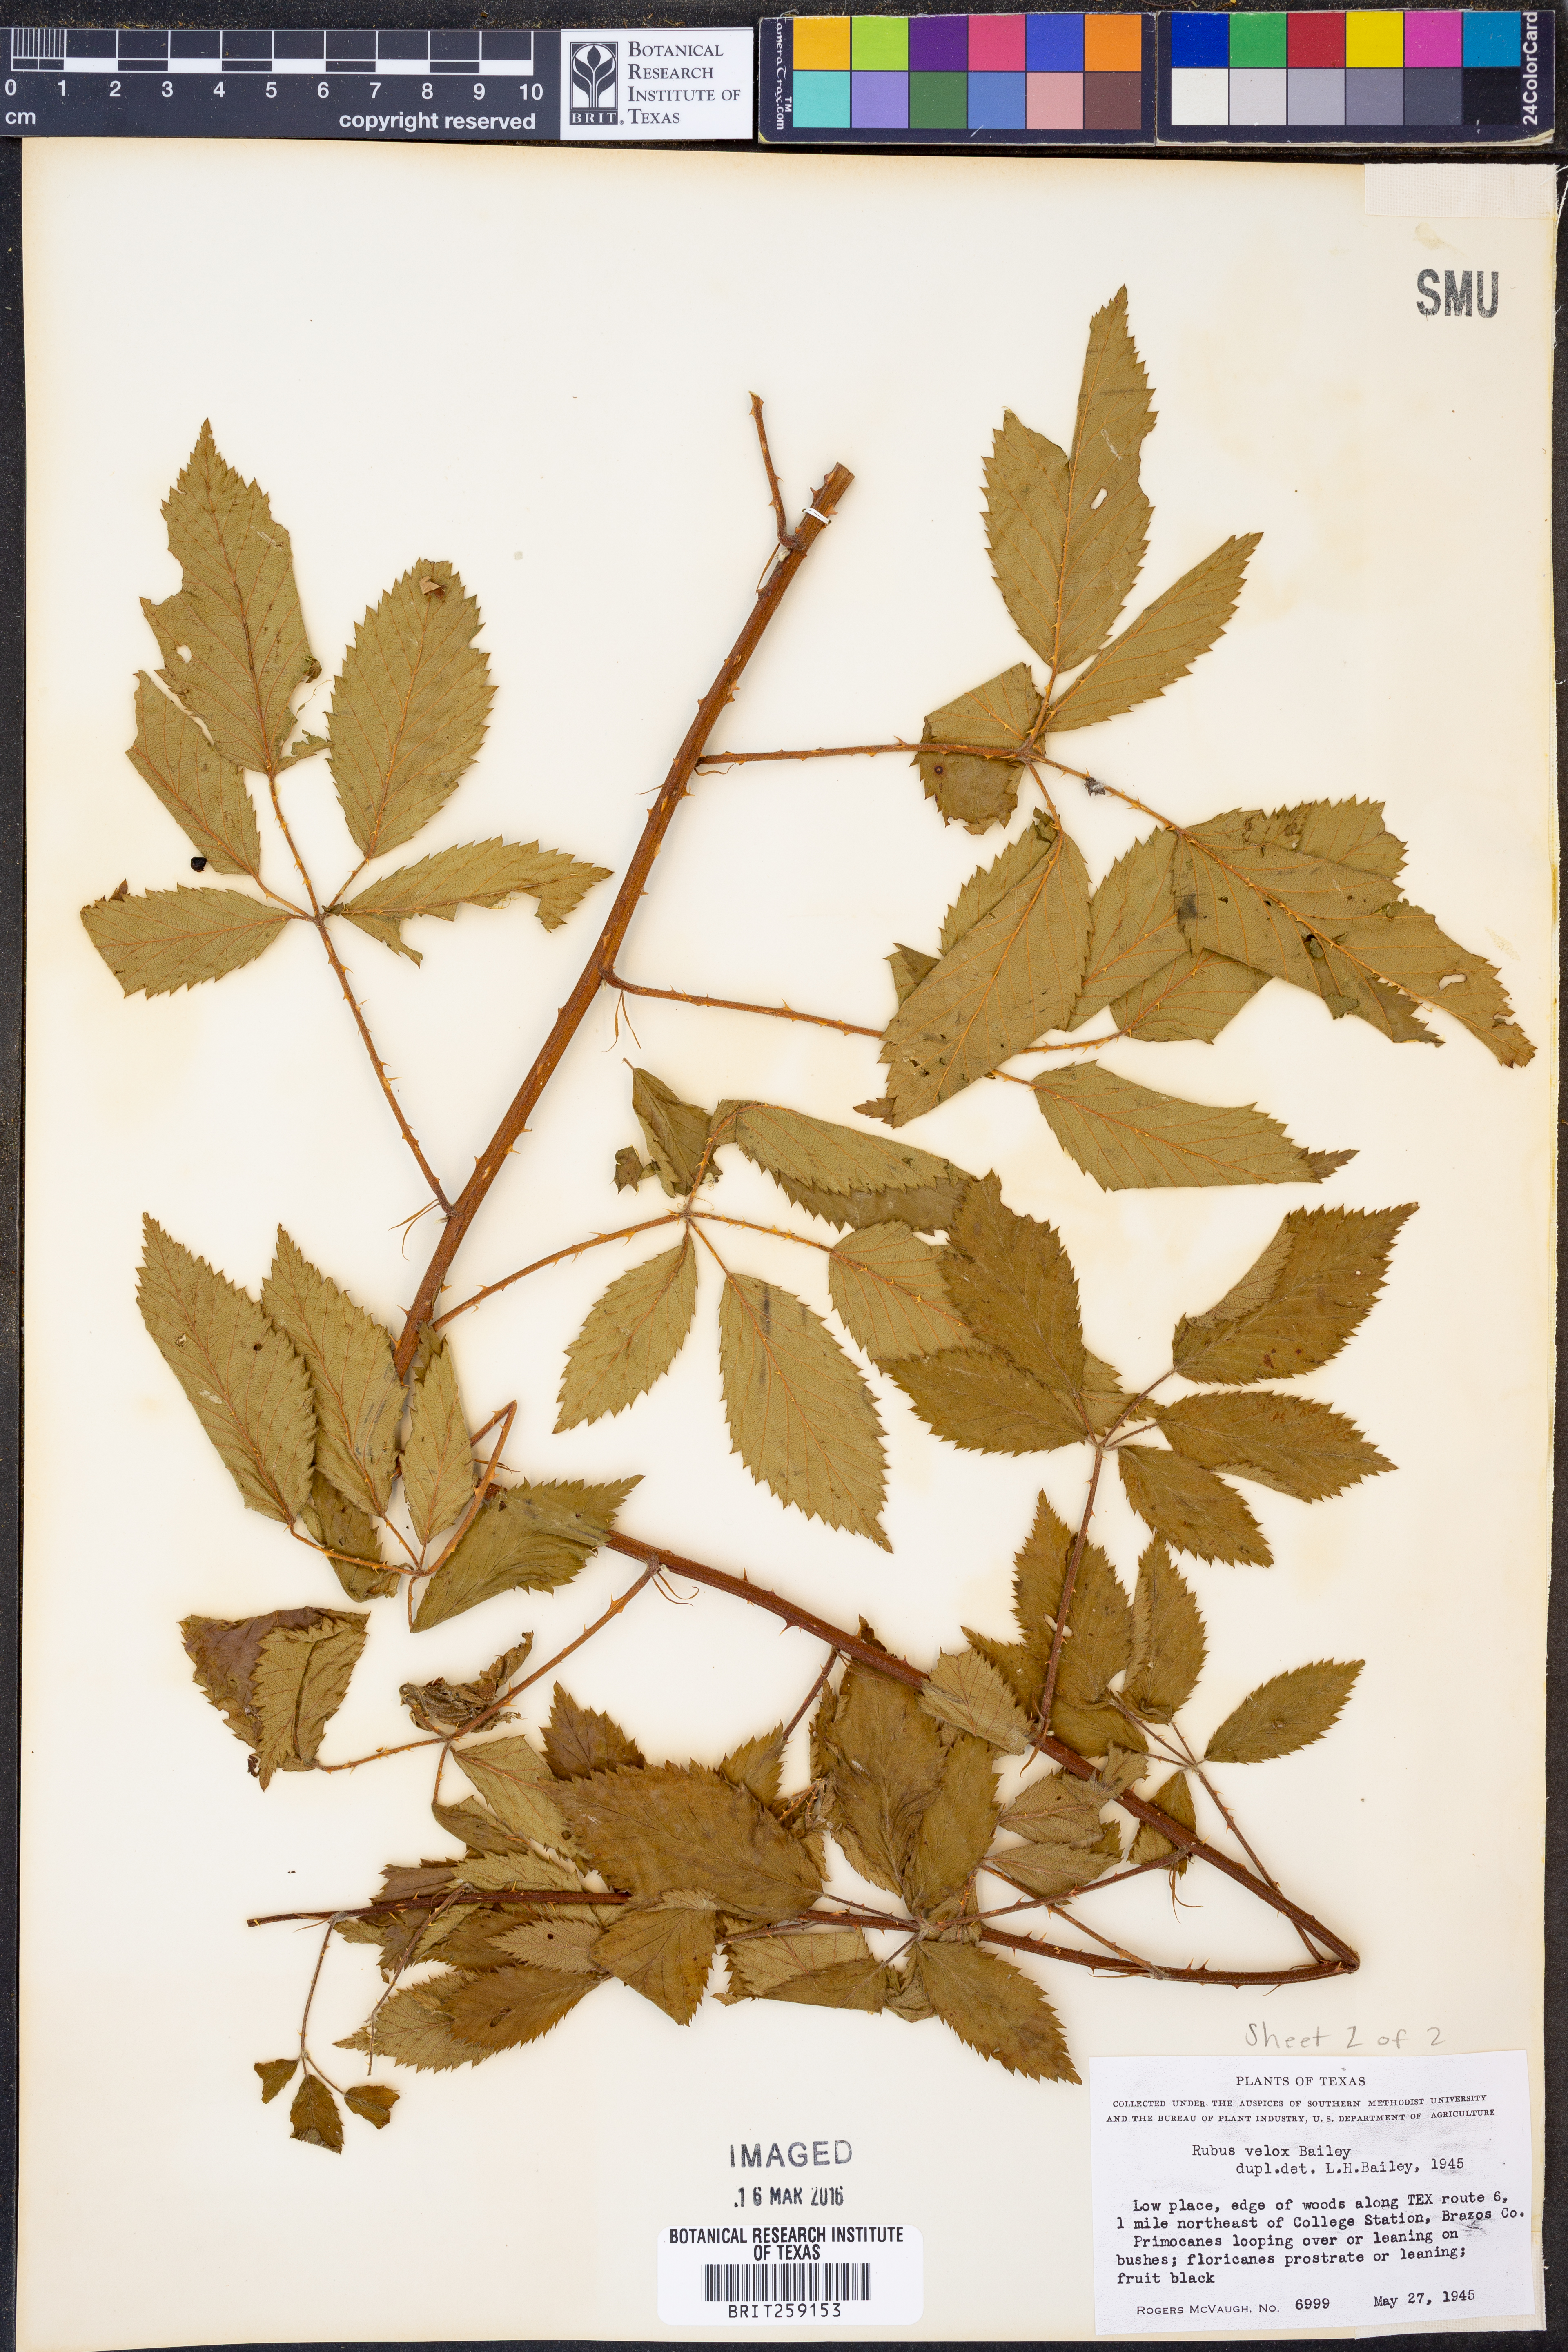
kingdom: Plantae
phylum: Tracheophyta
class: Magnoliopsida
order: Rosales
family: Rosaceae
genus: Rubus
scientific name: Rubus velox
